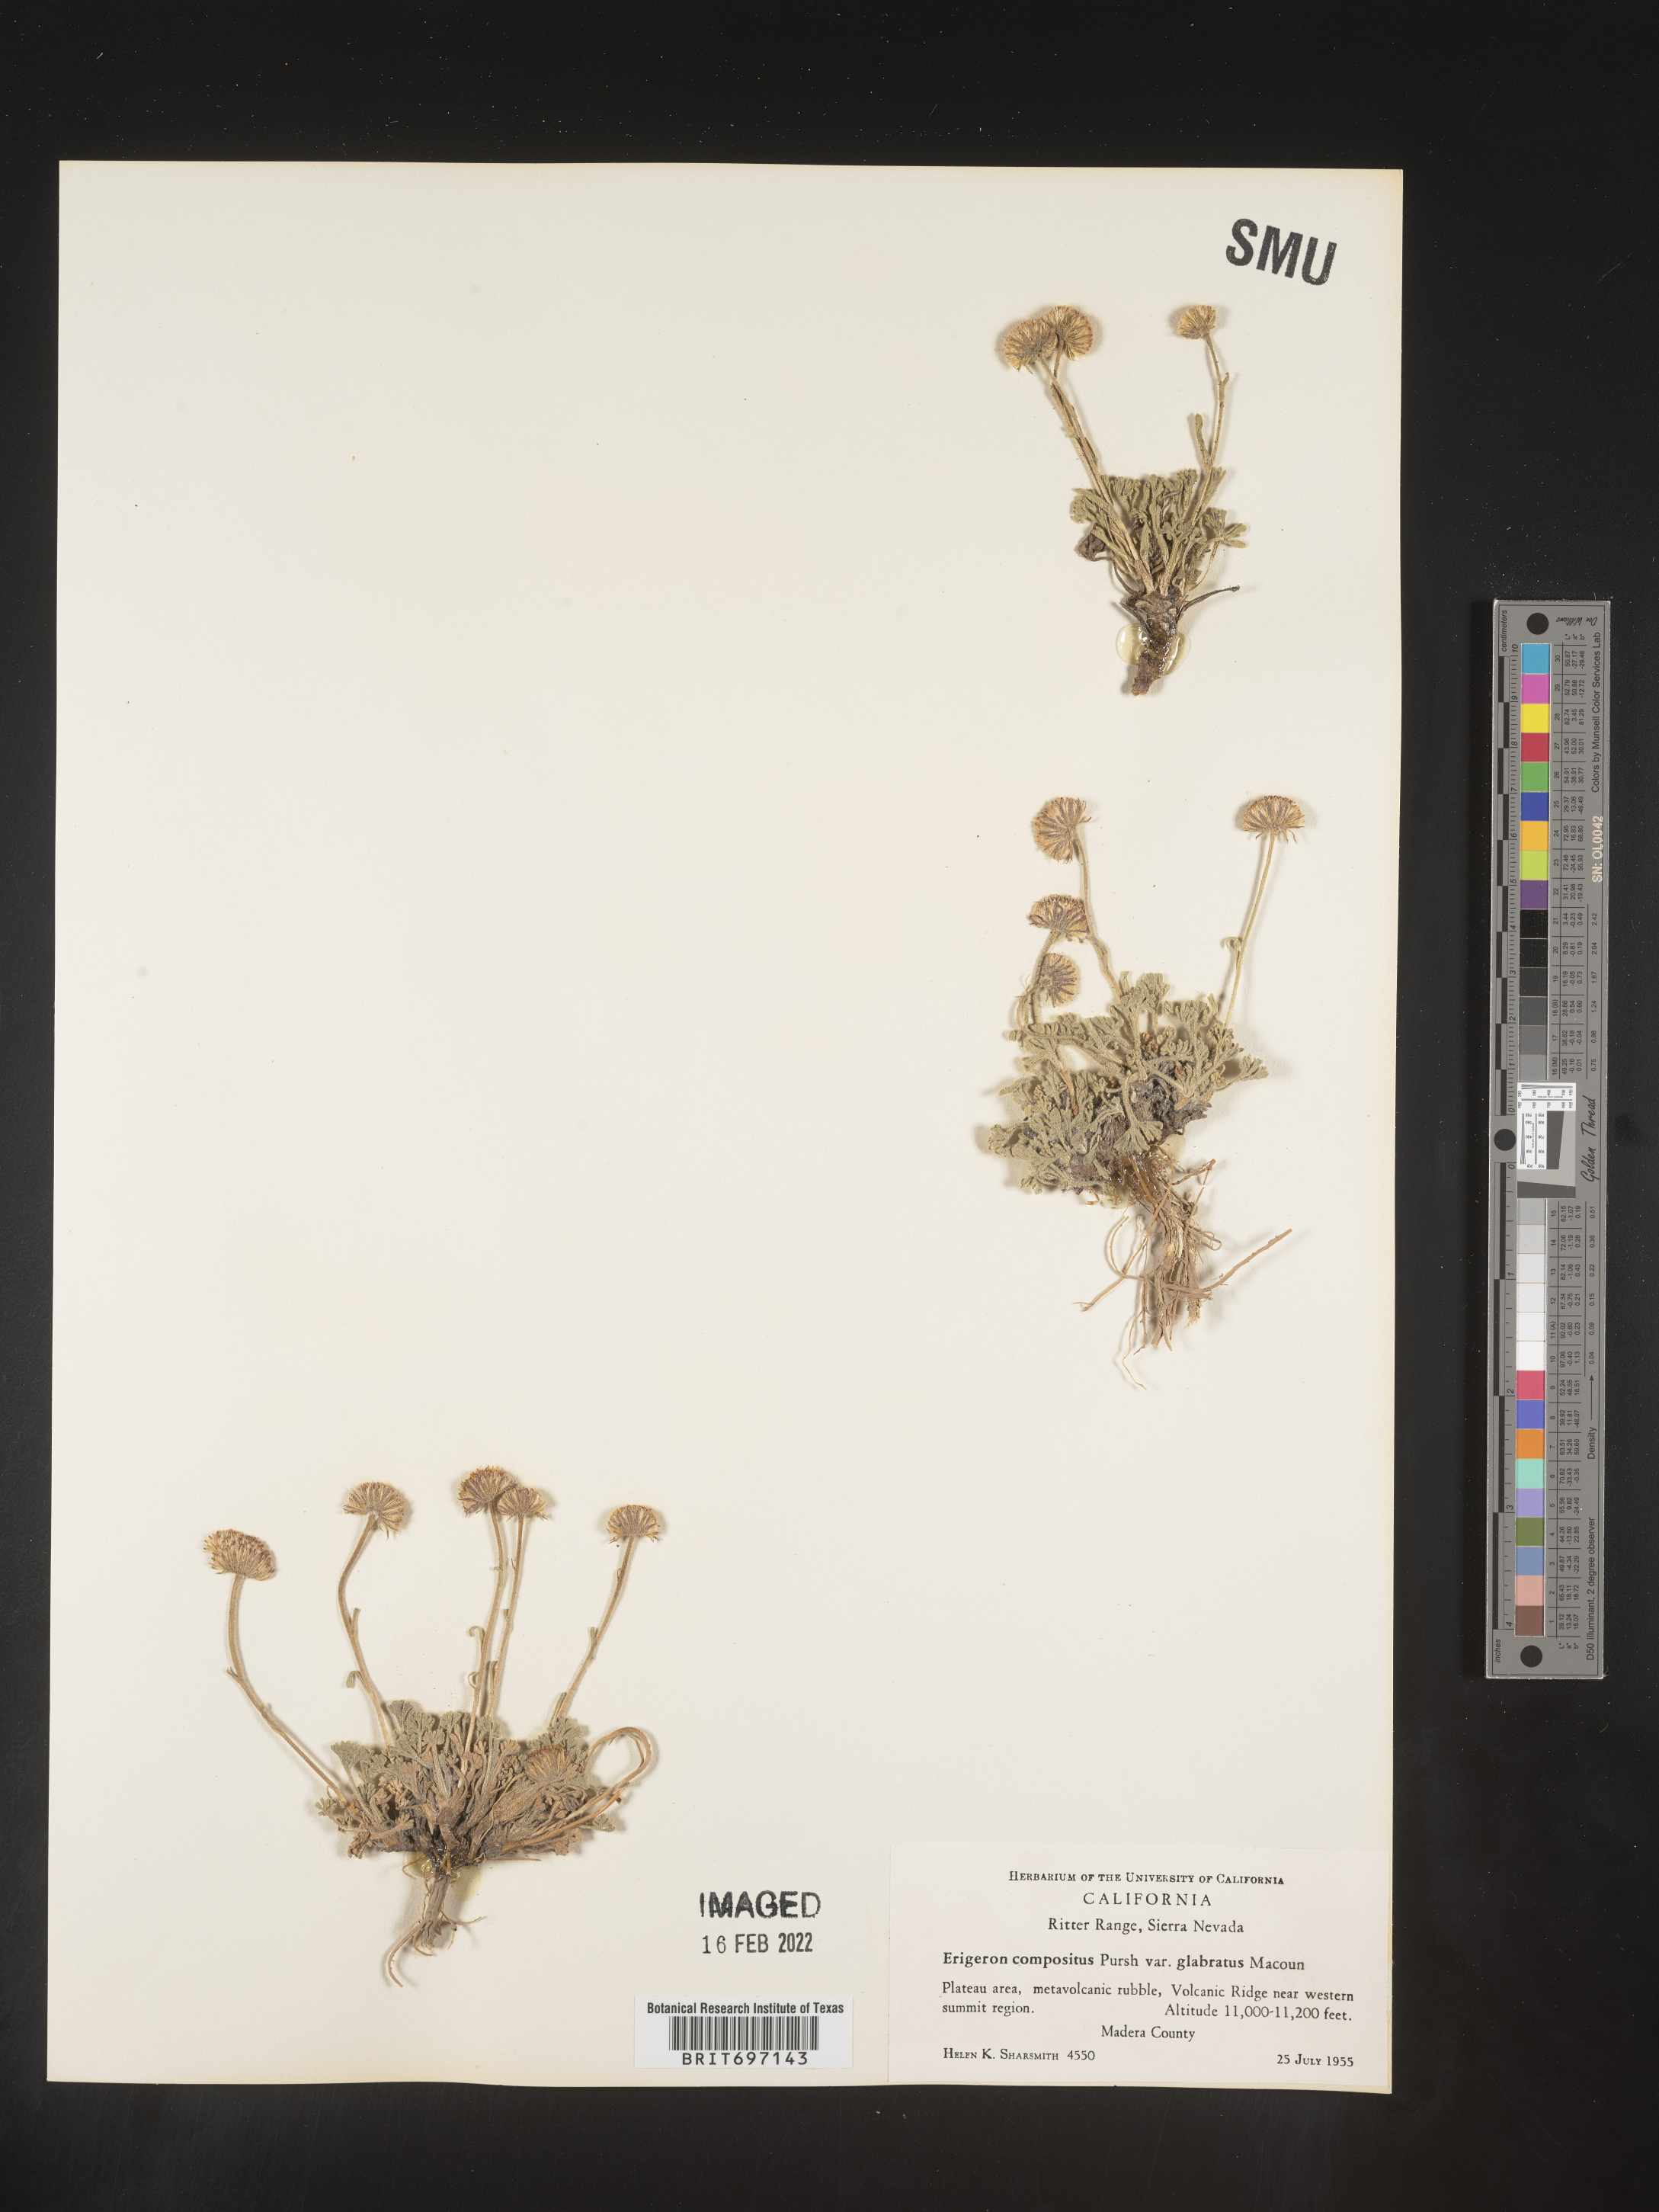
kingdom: Plantae
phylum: Tracheophyta
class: Magnoliopsida
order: Asterales
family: Asteraceae
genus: Erigeron
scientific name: Erigeron compositus
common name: Dwarf mountain fleabane
